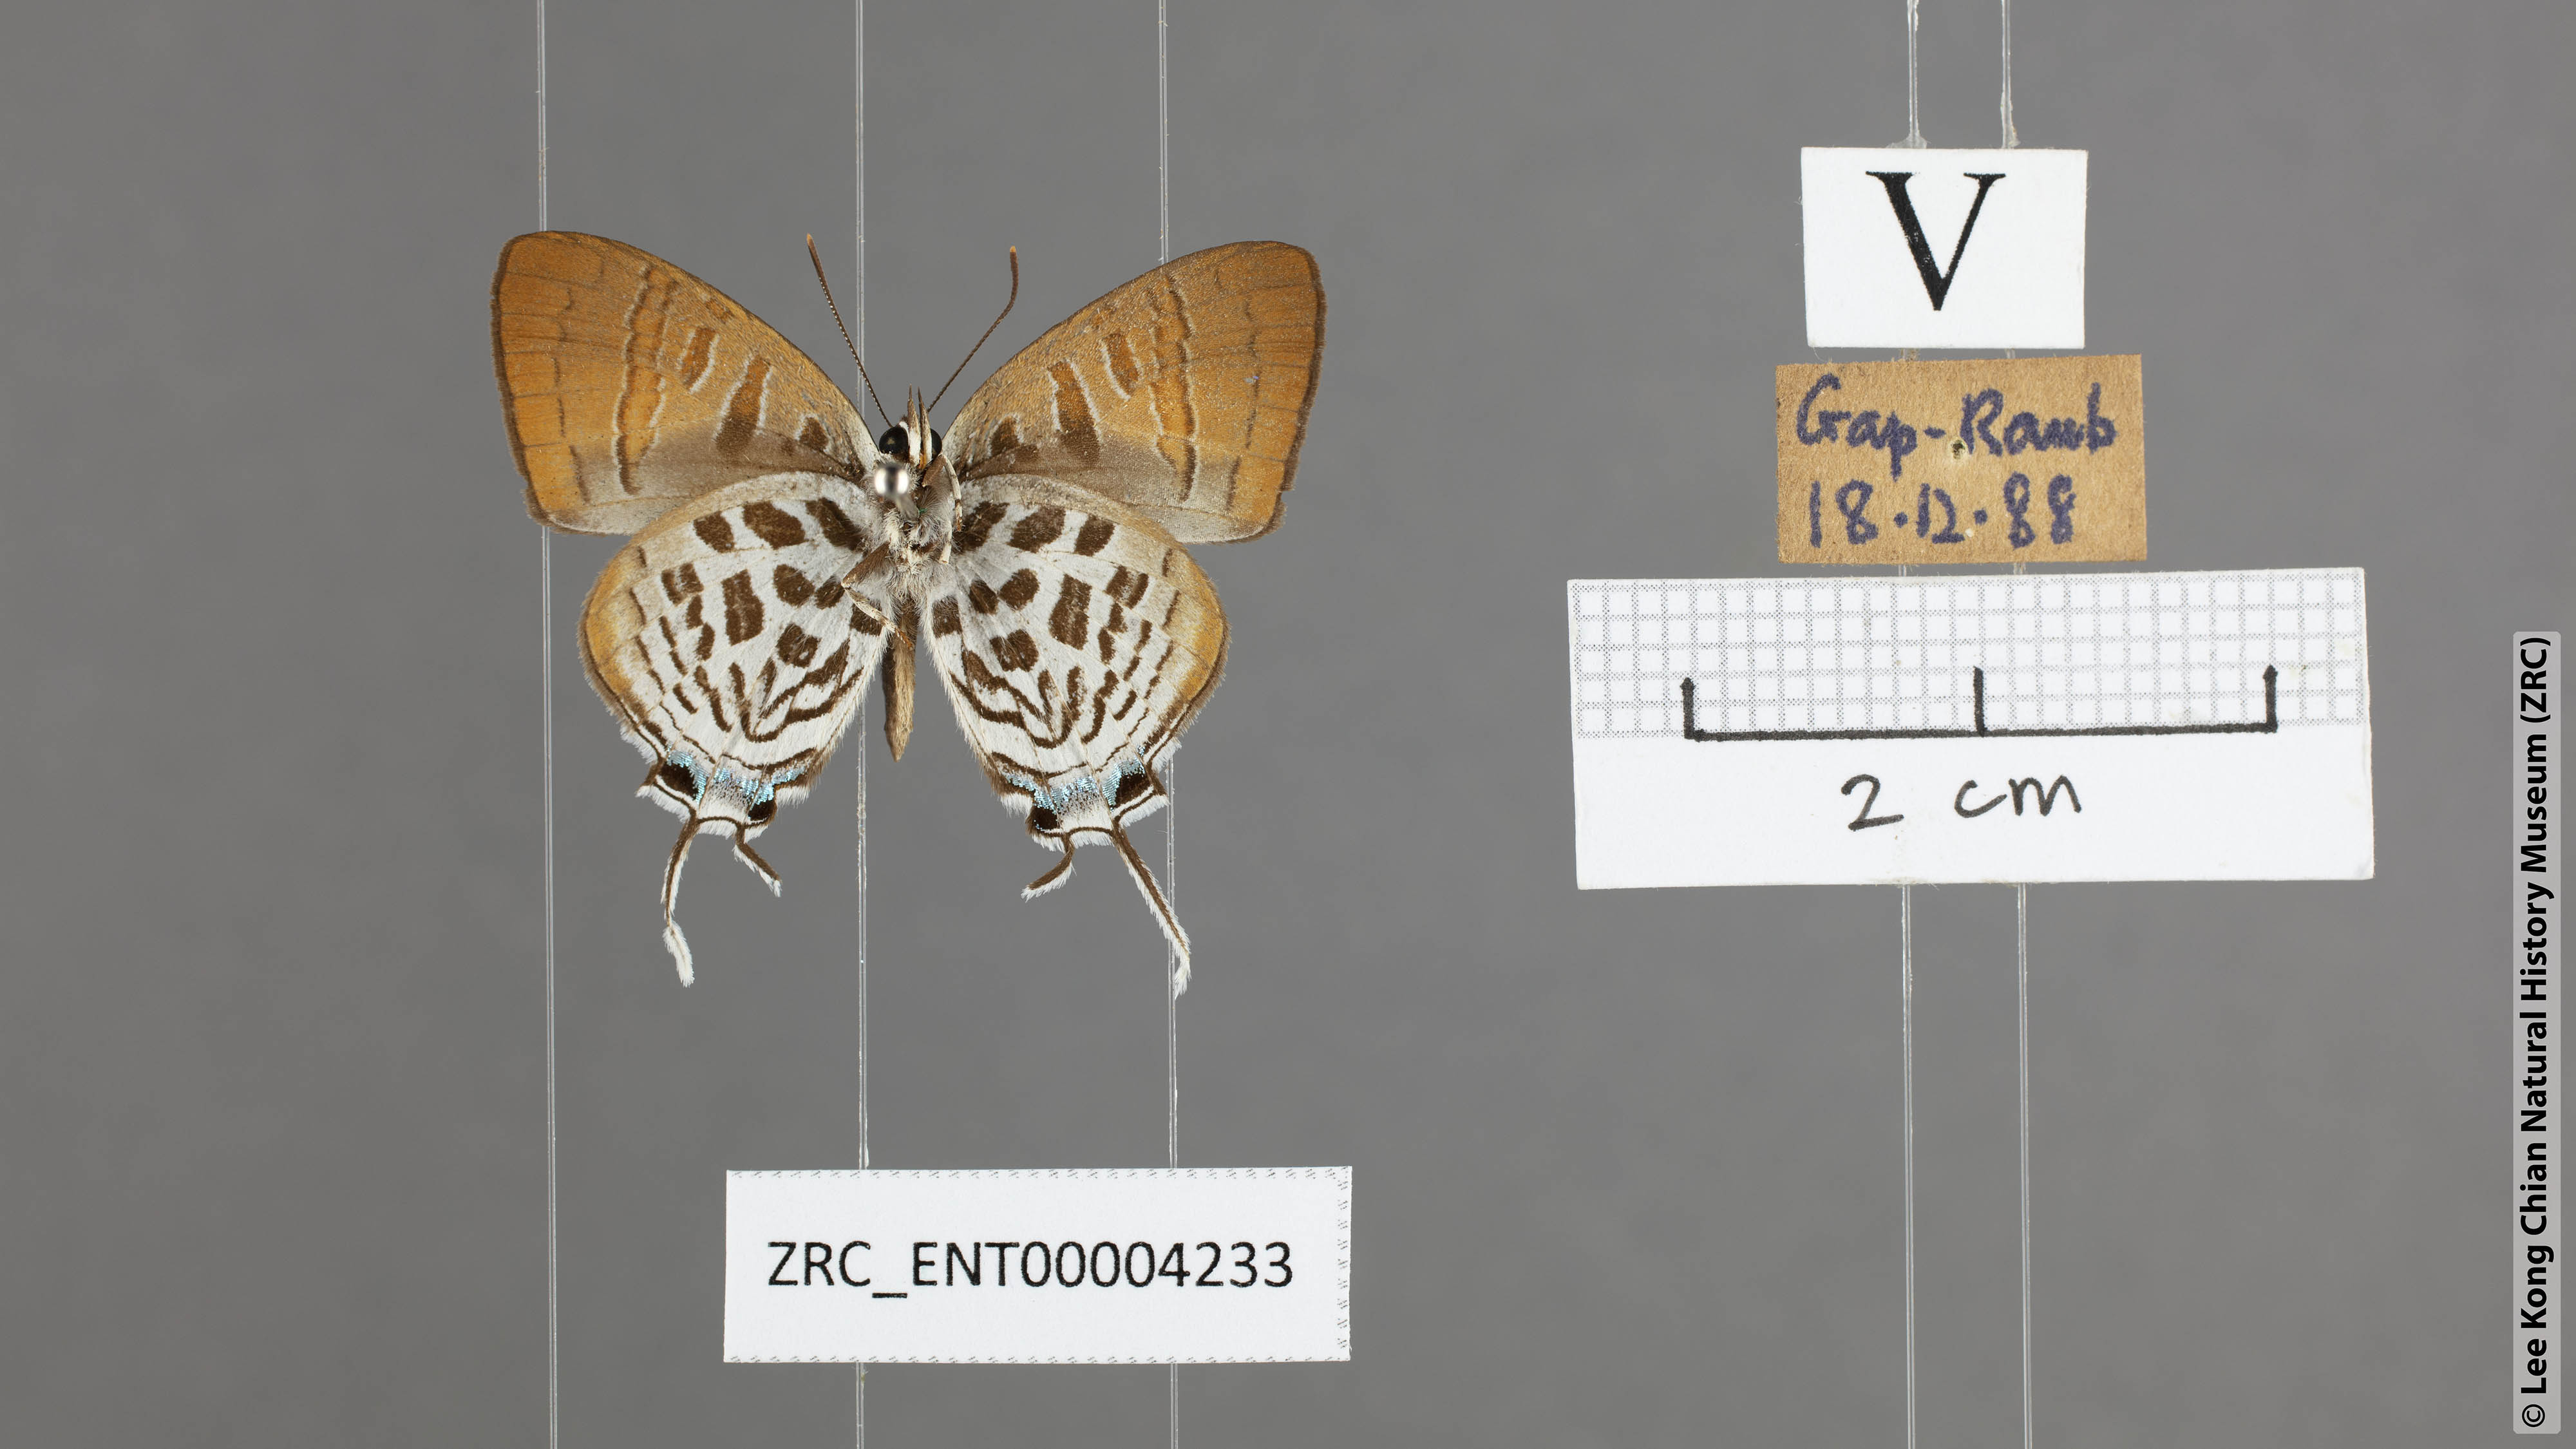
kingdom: Animalia
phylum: Arthropoda
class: Insecta
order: Lepidoptera
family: Lycaenidae
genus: Drupadia
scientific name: Drupadia theda
